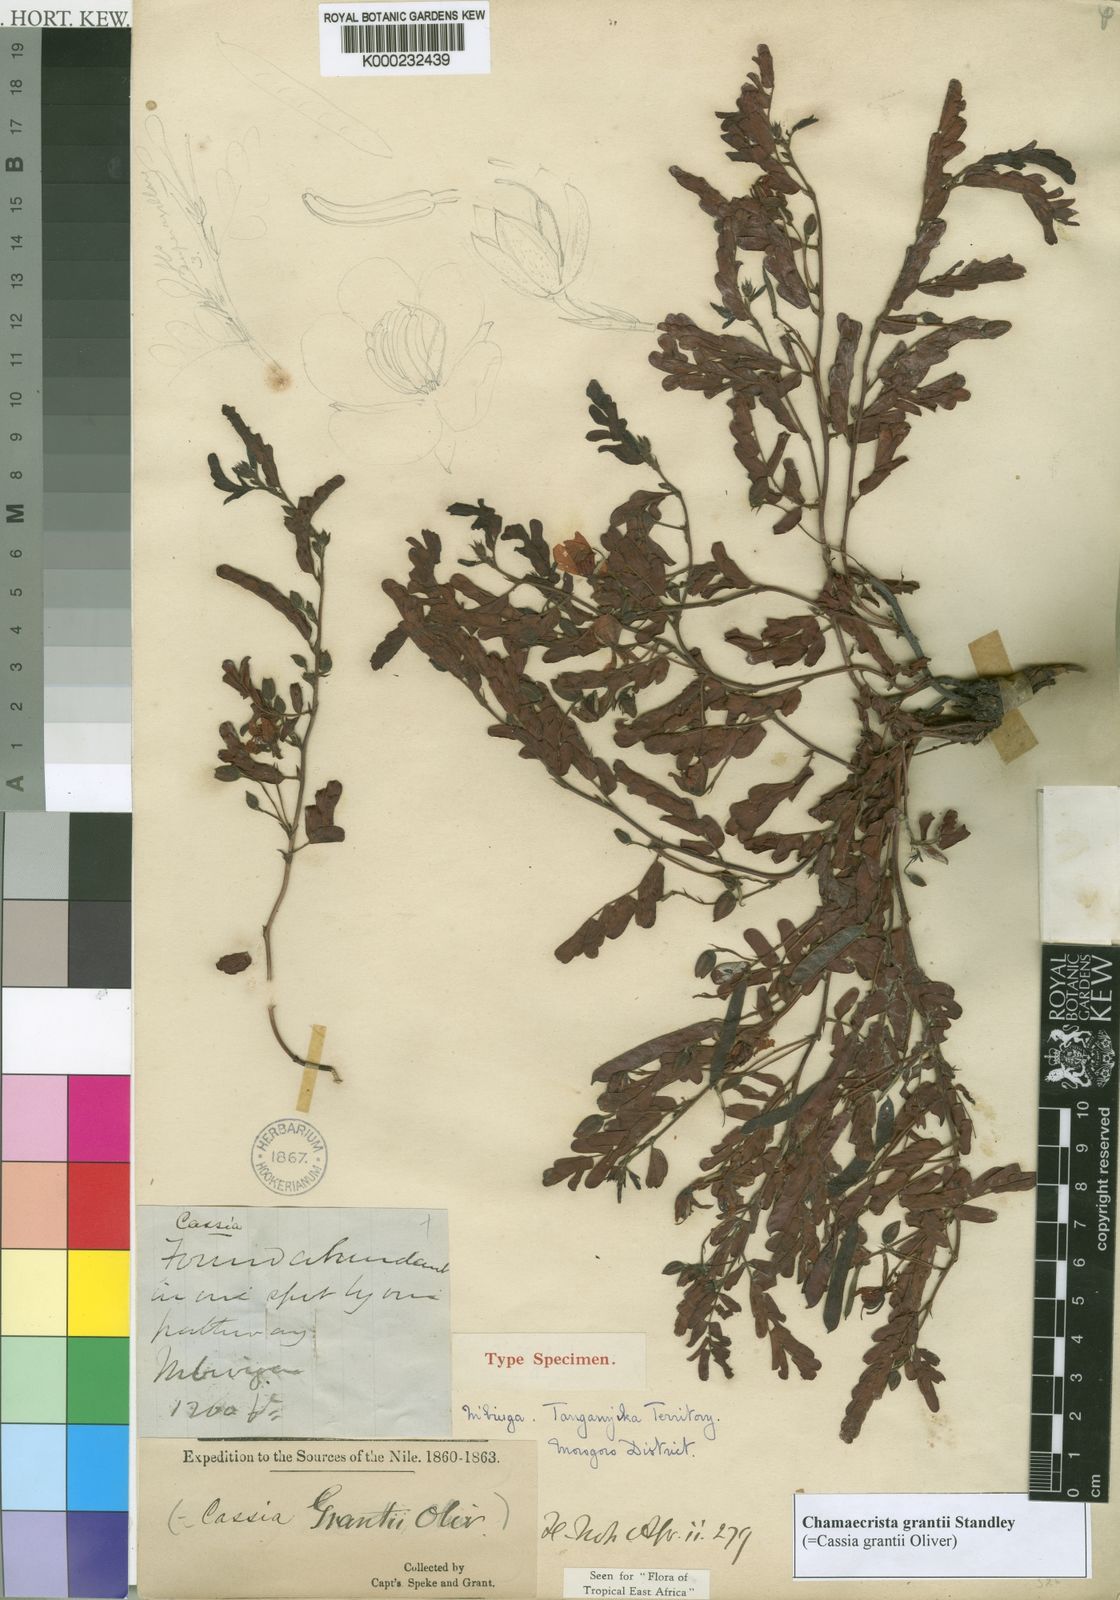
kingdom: Plantae
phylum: Tracheophyta
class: Magnoliopsida
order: Fabales
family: Fabaceae
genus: Chamaecrista
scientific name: Chamaecrista grantii
